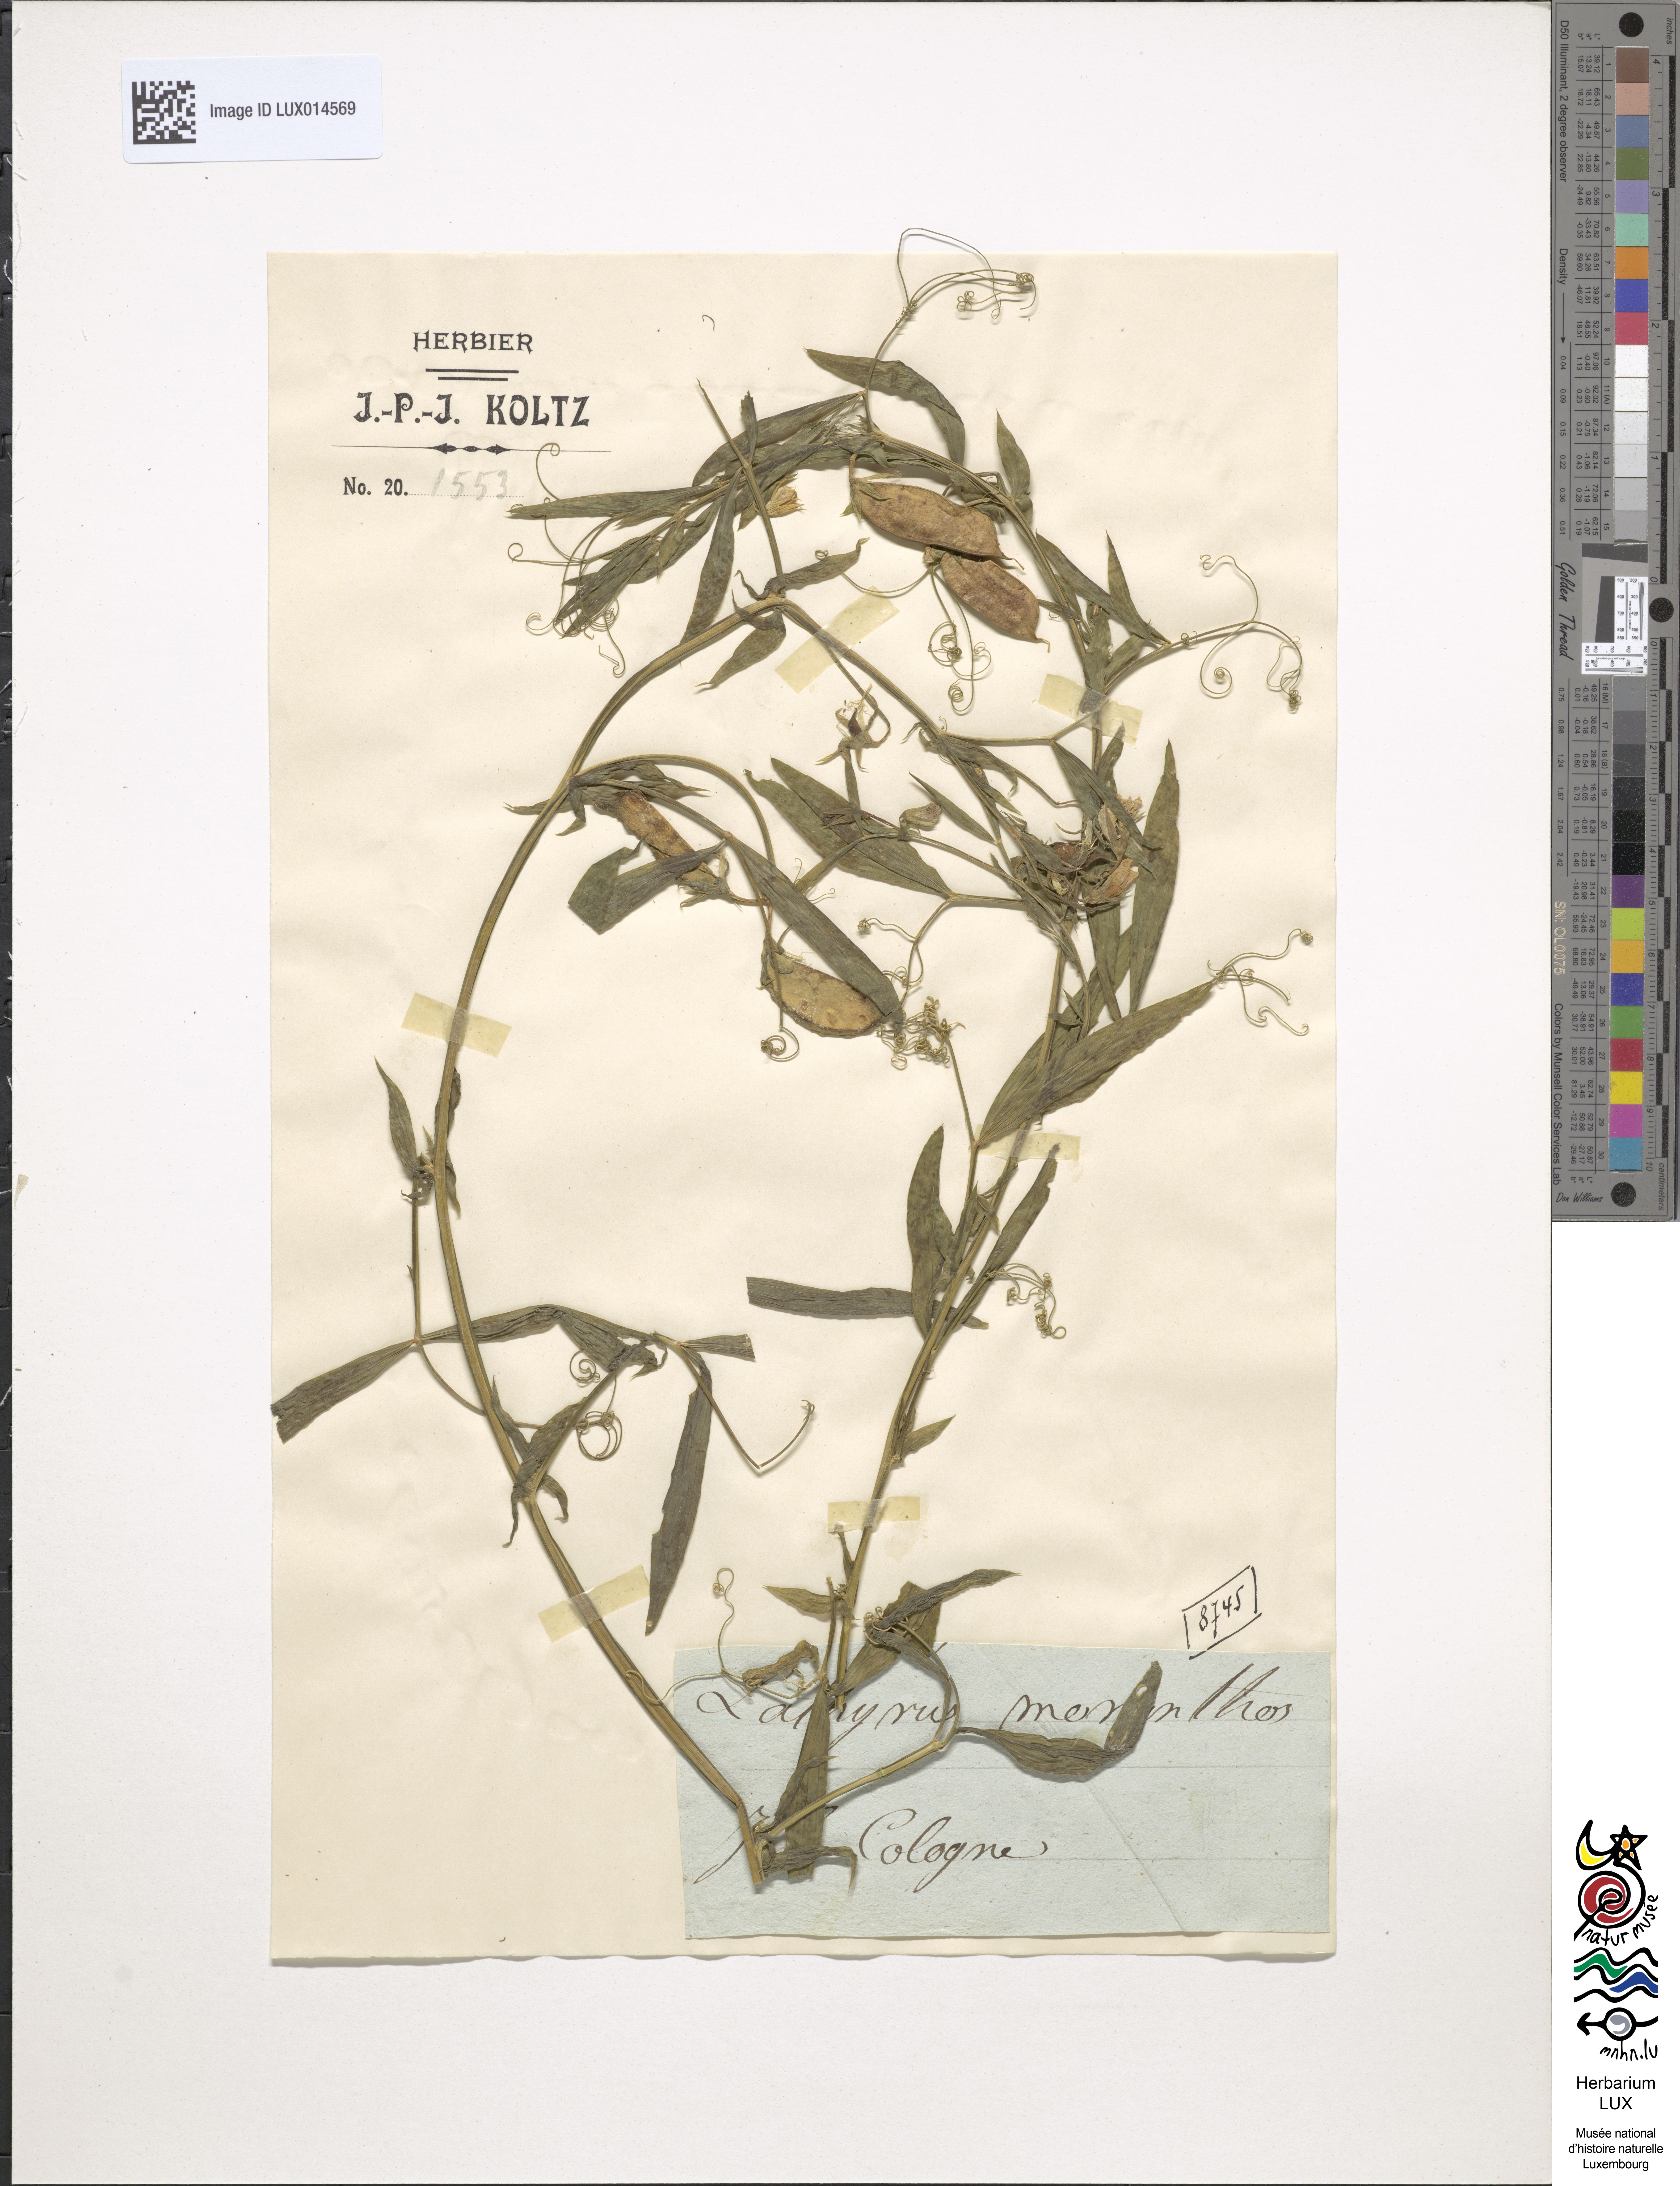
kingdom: Plantae
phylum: Tracheophyta
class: Magnoliopsida
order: Fabales
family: Fabaceae
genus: Lathyrus
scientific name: Lathyrus
